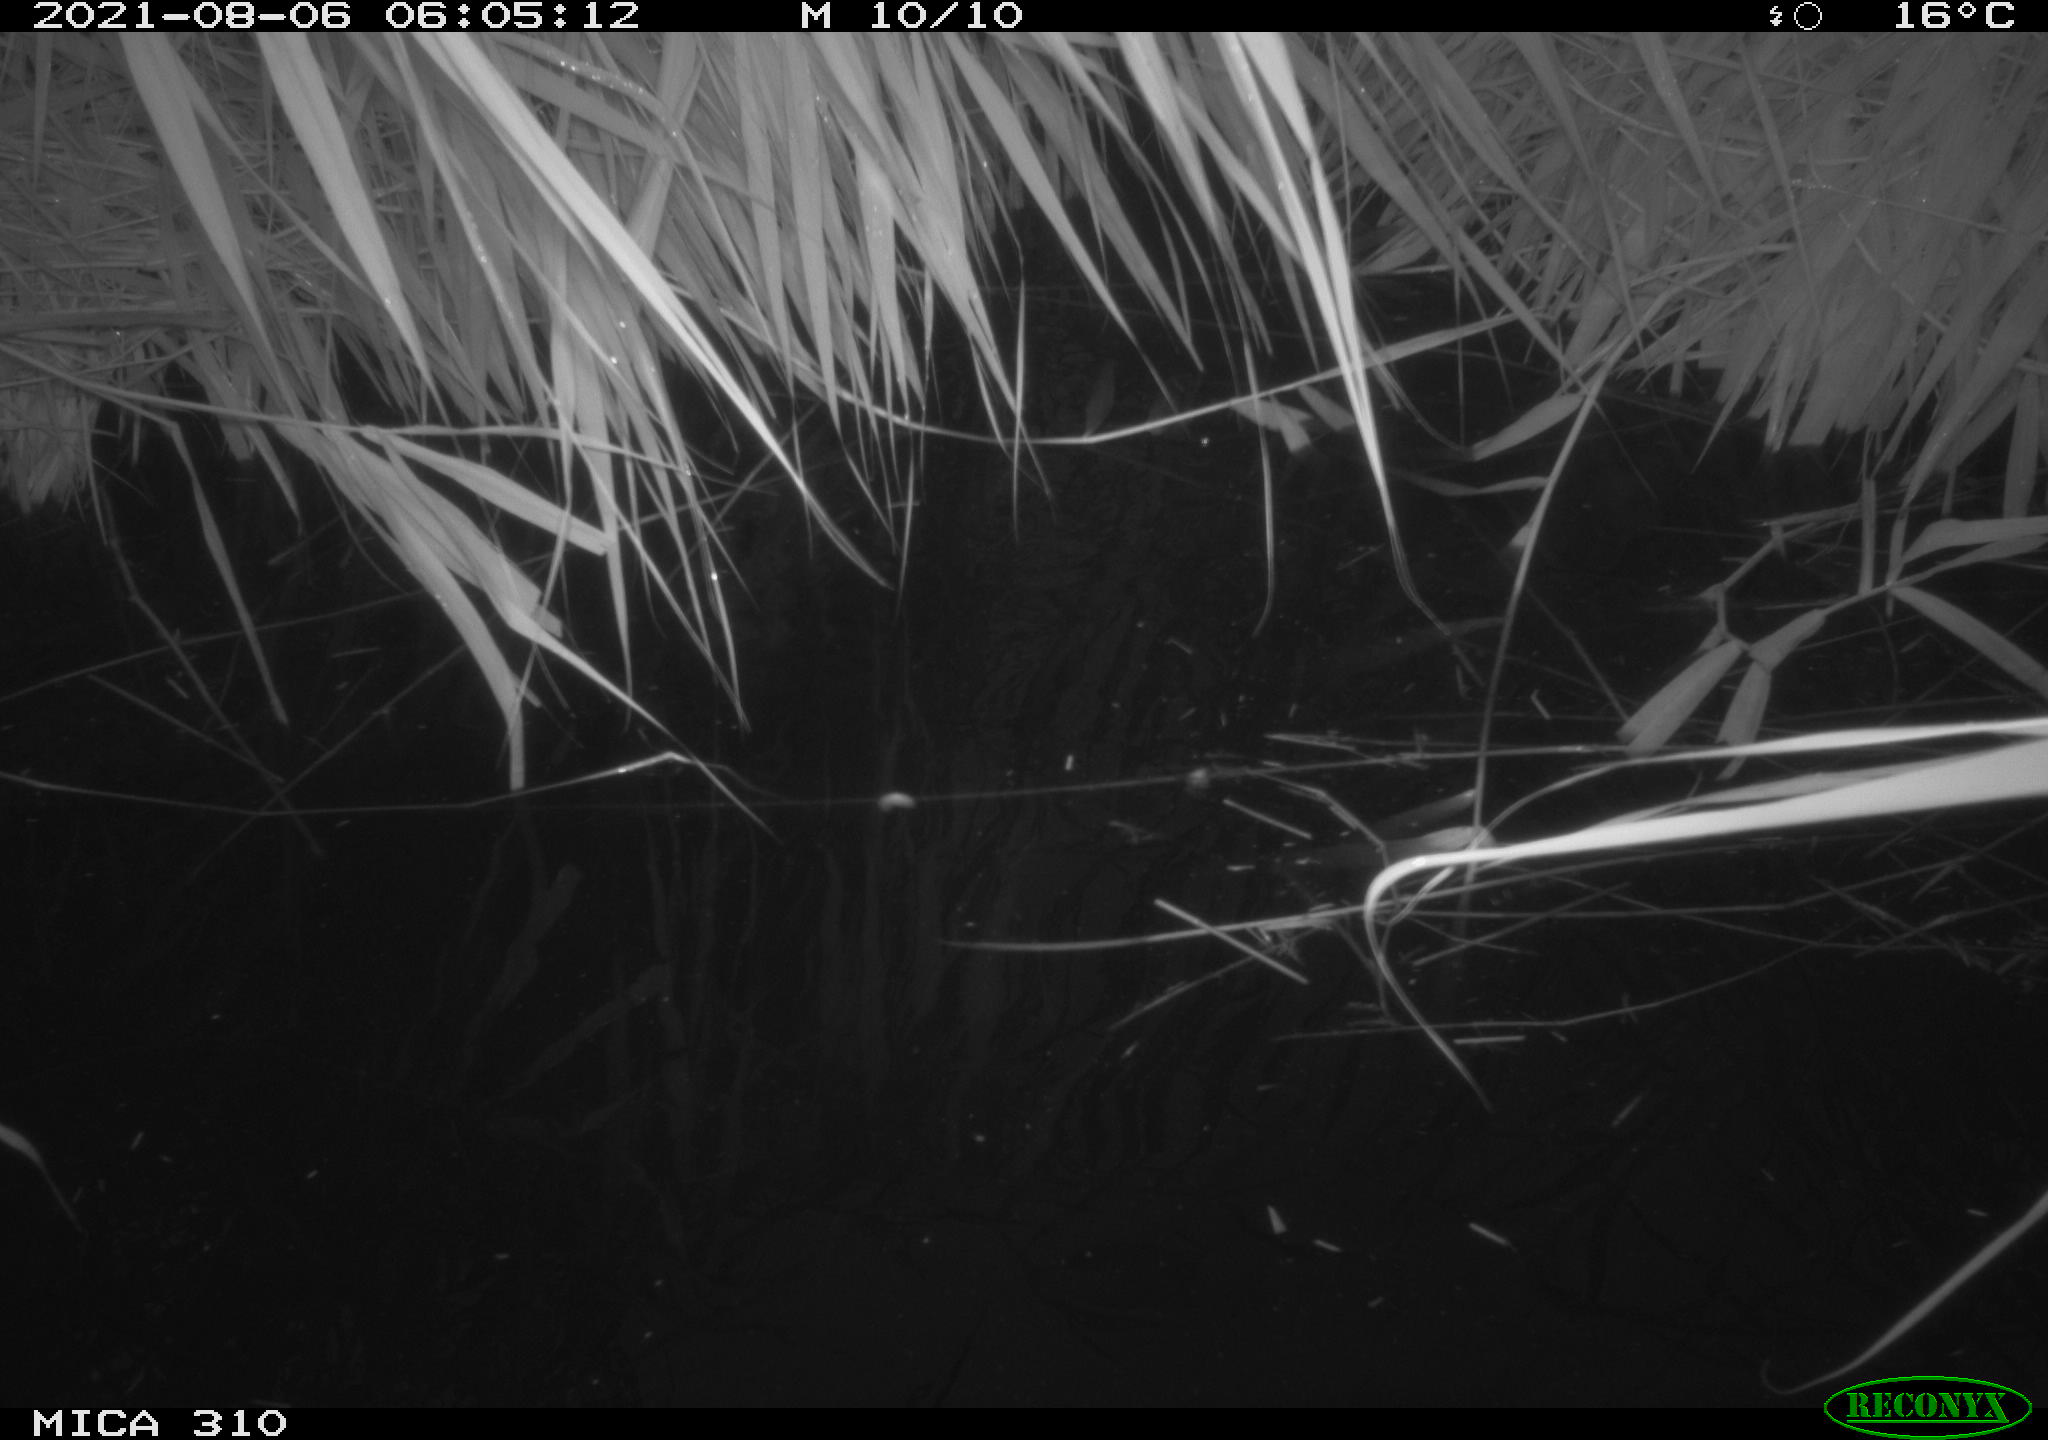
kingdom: Animalia
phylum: Chordata
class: Aves
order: Anseriformes
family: Anatidae
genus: Mareca
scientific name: Mareca strepera
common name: Gadwall
